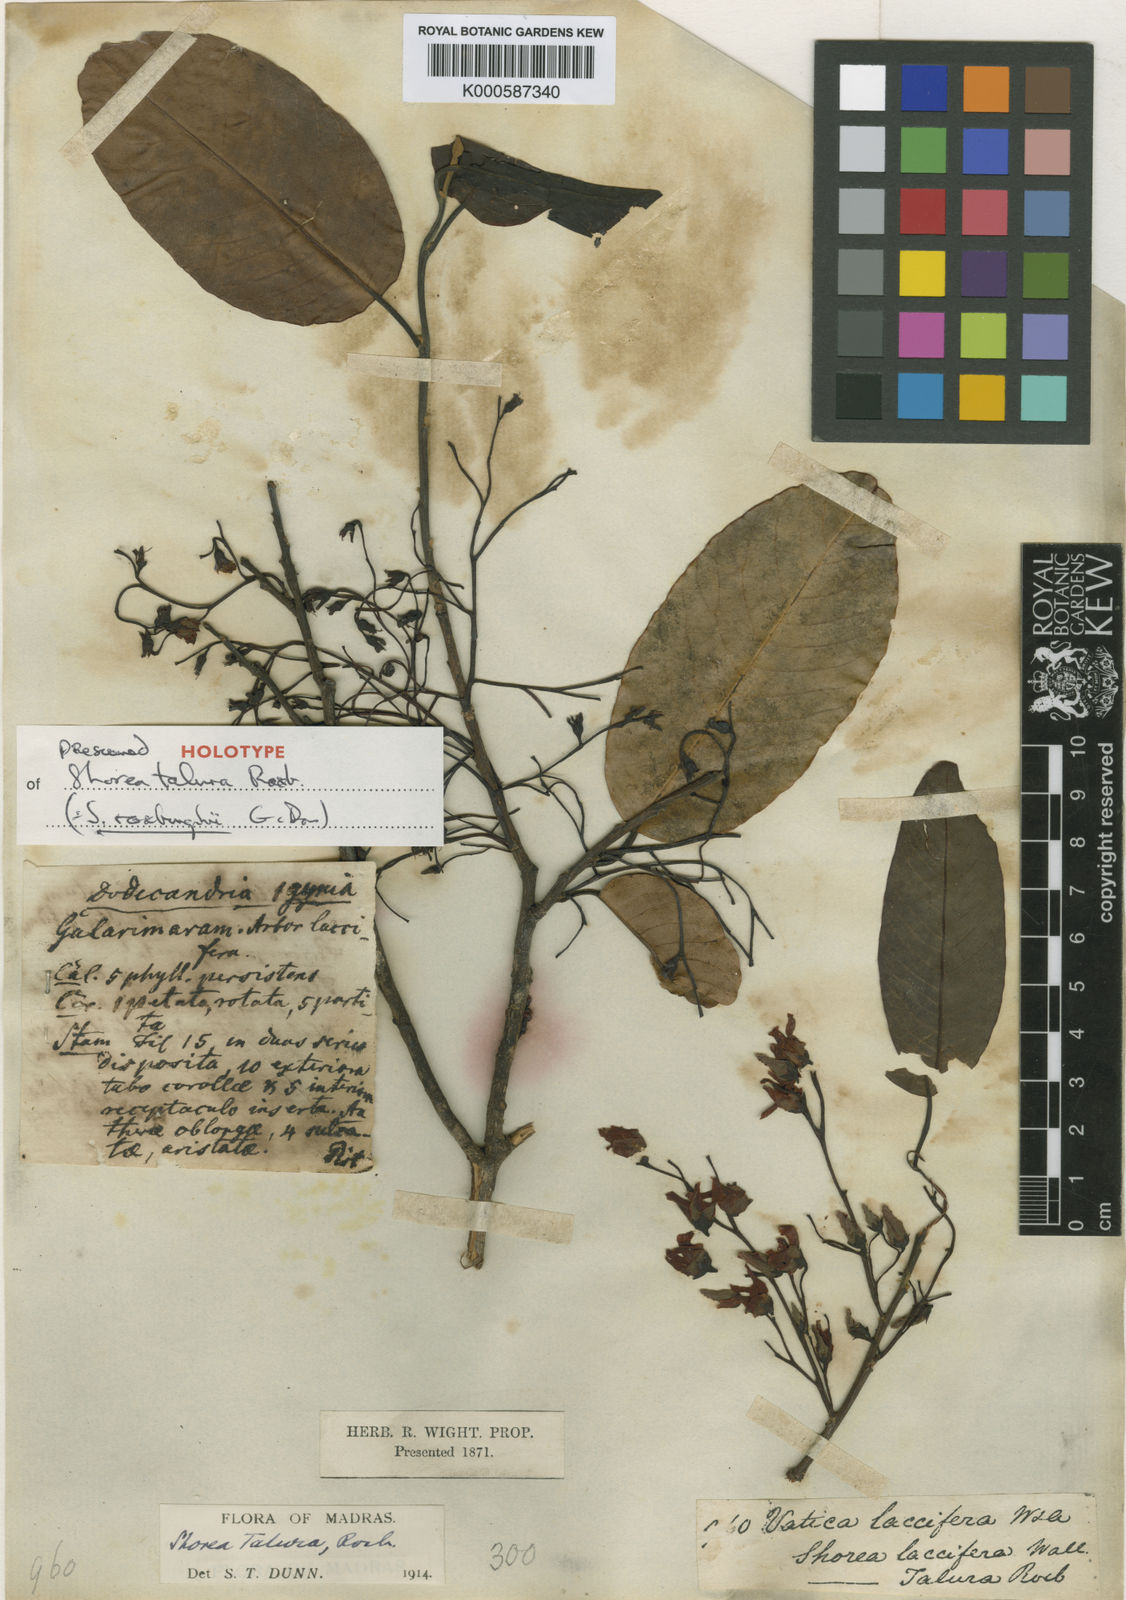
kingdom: Plantae
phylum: Tracheophyta
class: Magnoliopsida
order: Malvales
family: Dipterocarpaceae
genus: Anthoshorea
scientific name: Anthoshorea roxburghii
